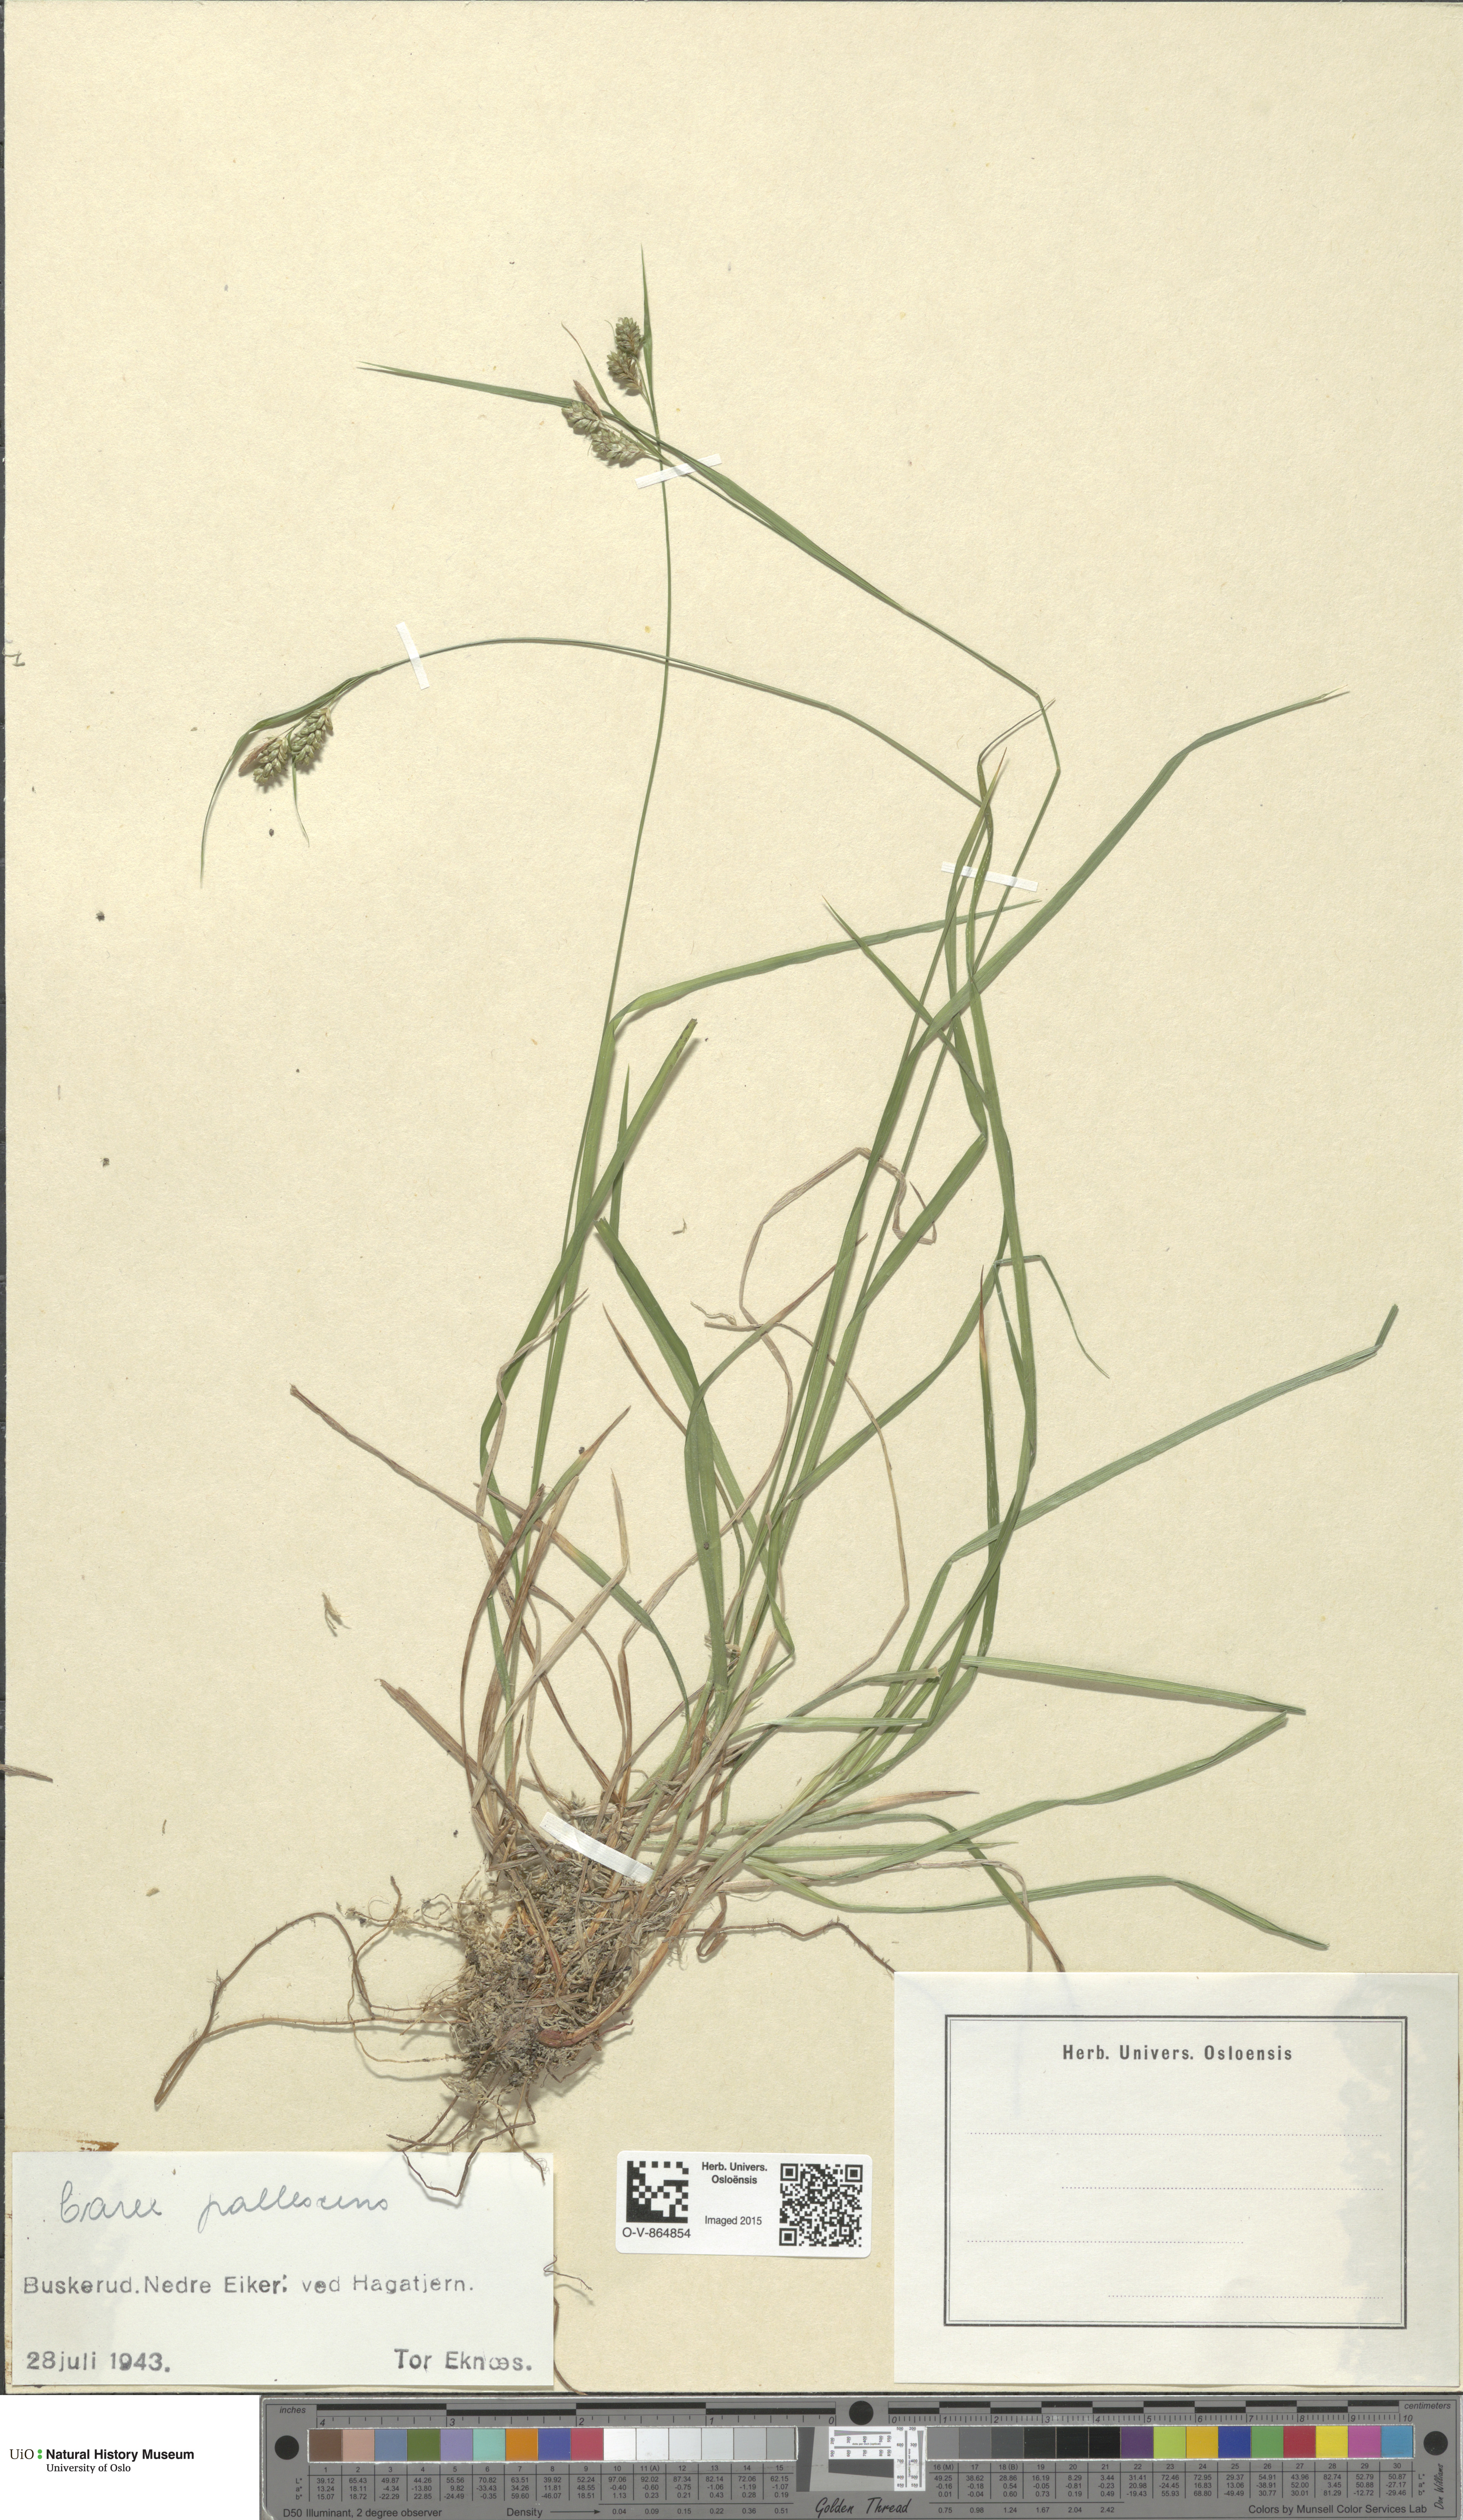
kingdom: Plantae
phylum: Tracheophyta
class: Liliopsida
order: Poales
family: Cyperaceae
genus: Carex
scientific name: Carex pallescens
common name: Pale sedge
